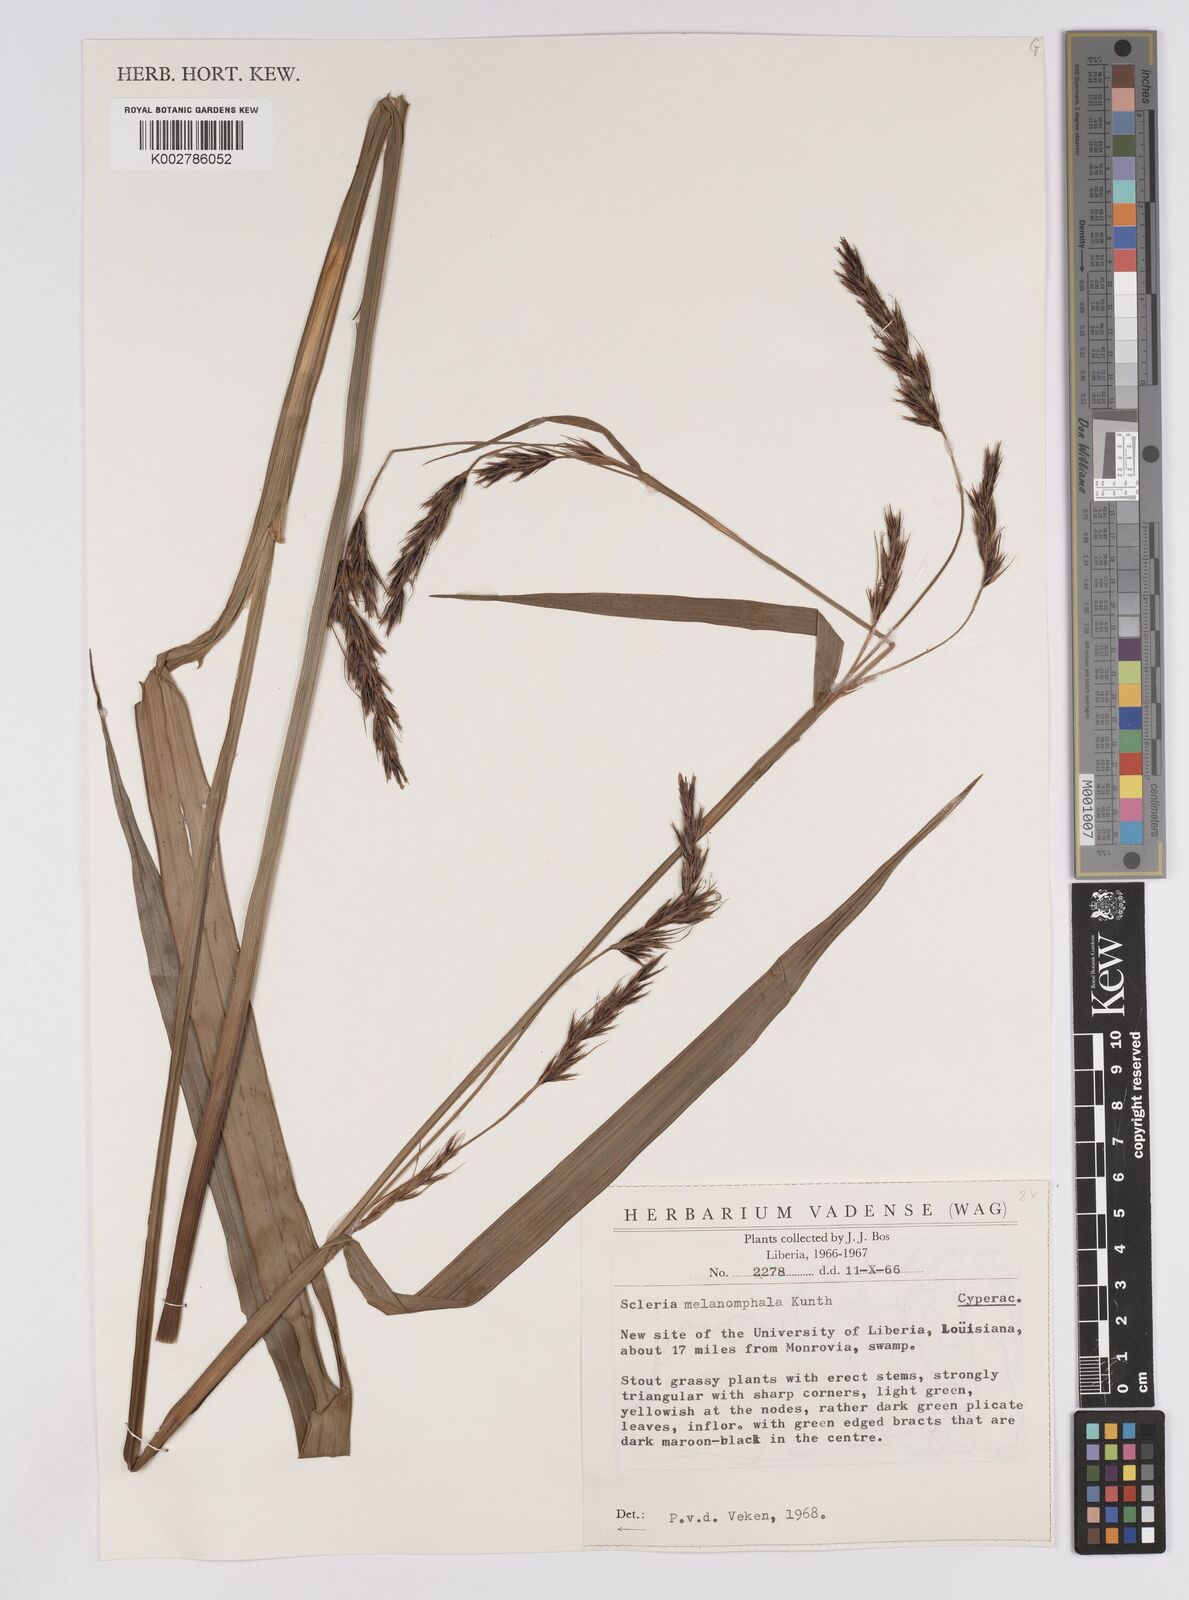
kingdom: Plantae
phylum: Tracheophyta
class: Liliopsida
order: Poales
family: Cyperaceae
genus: Scleria
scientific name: Scleria melanomphala
